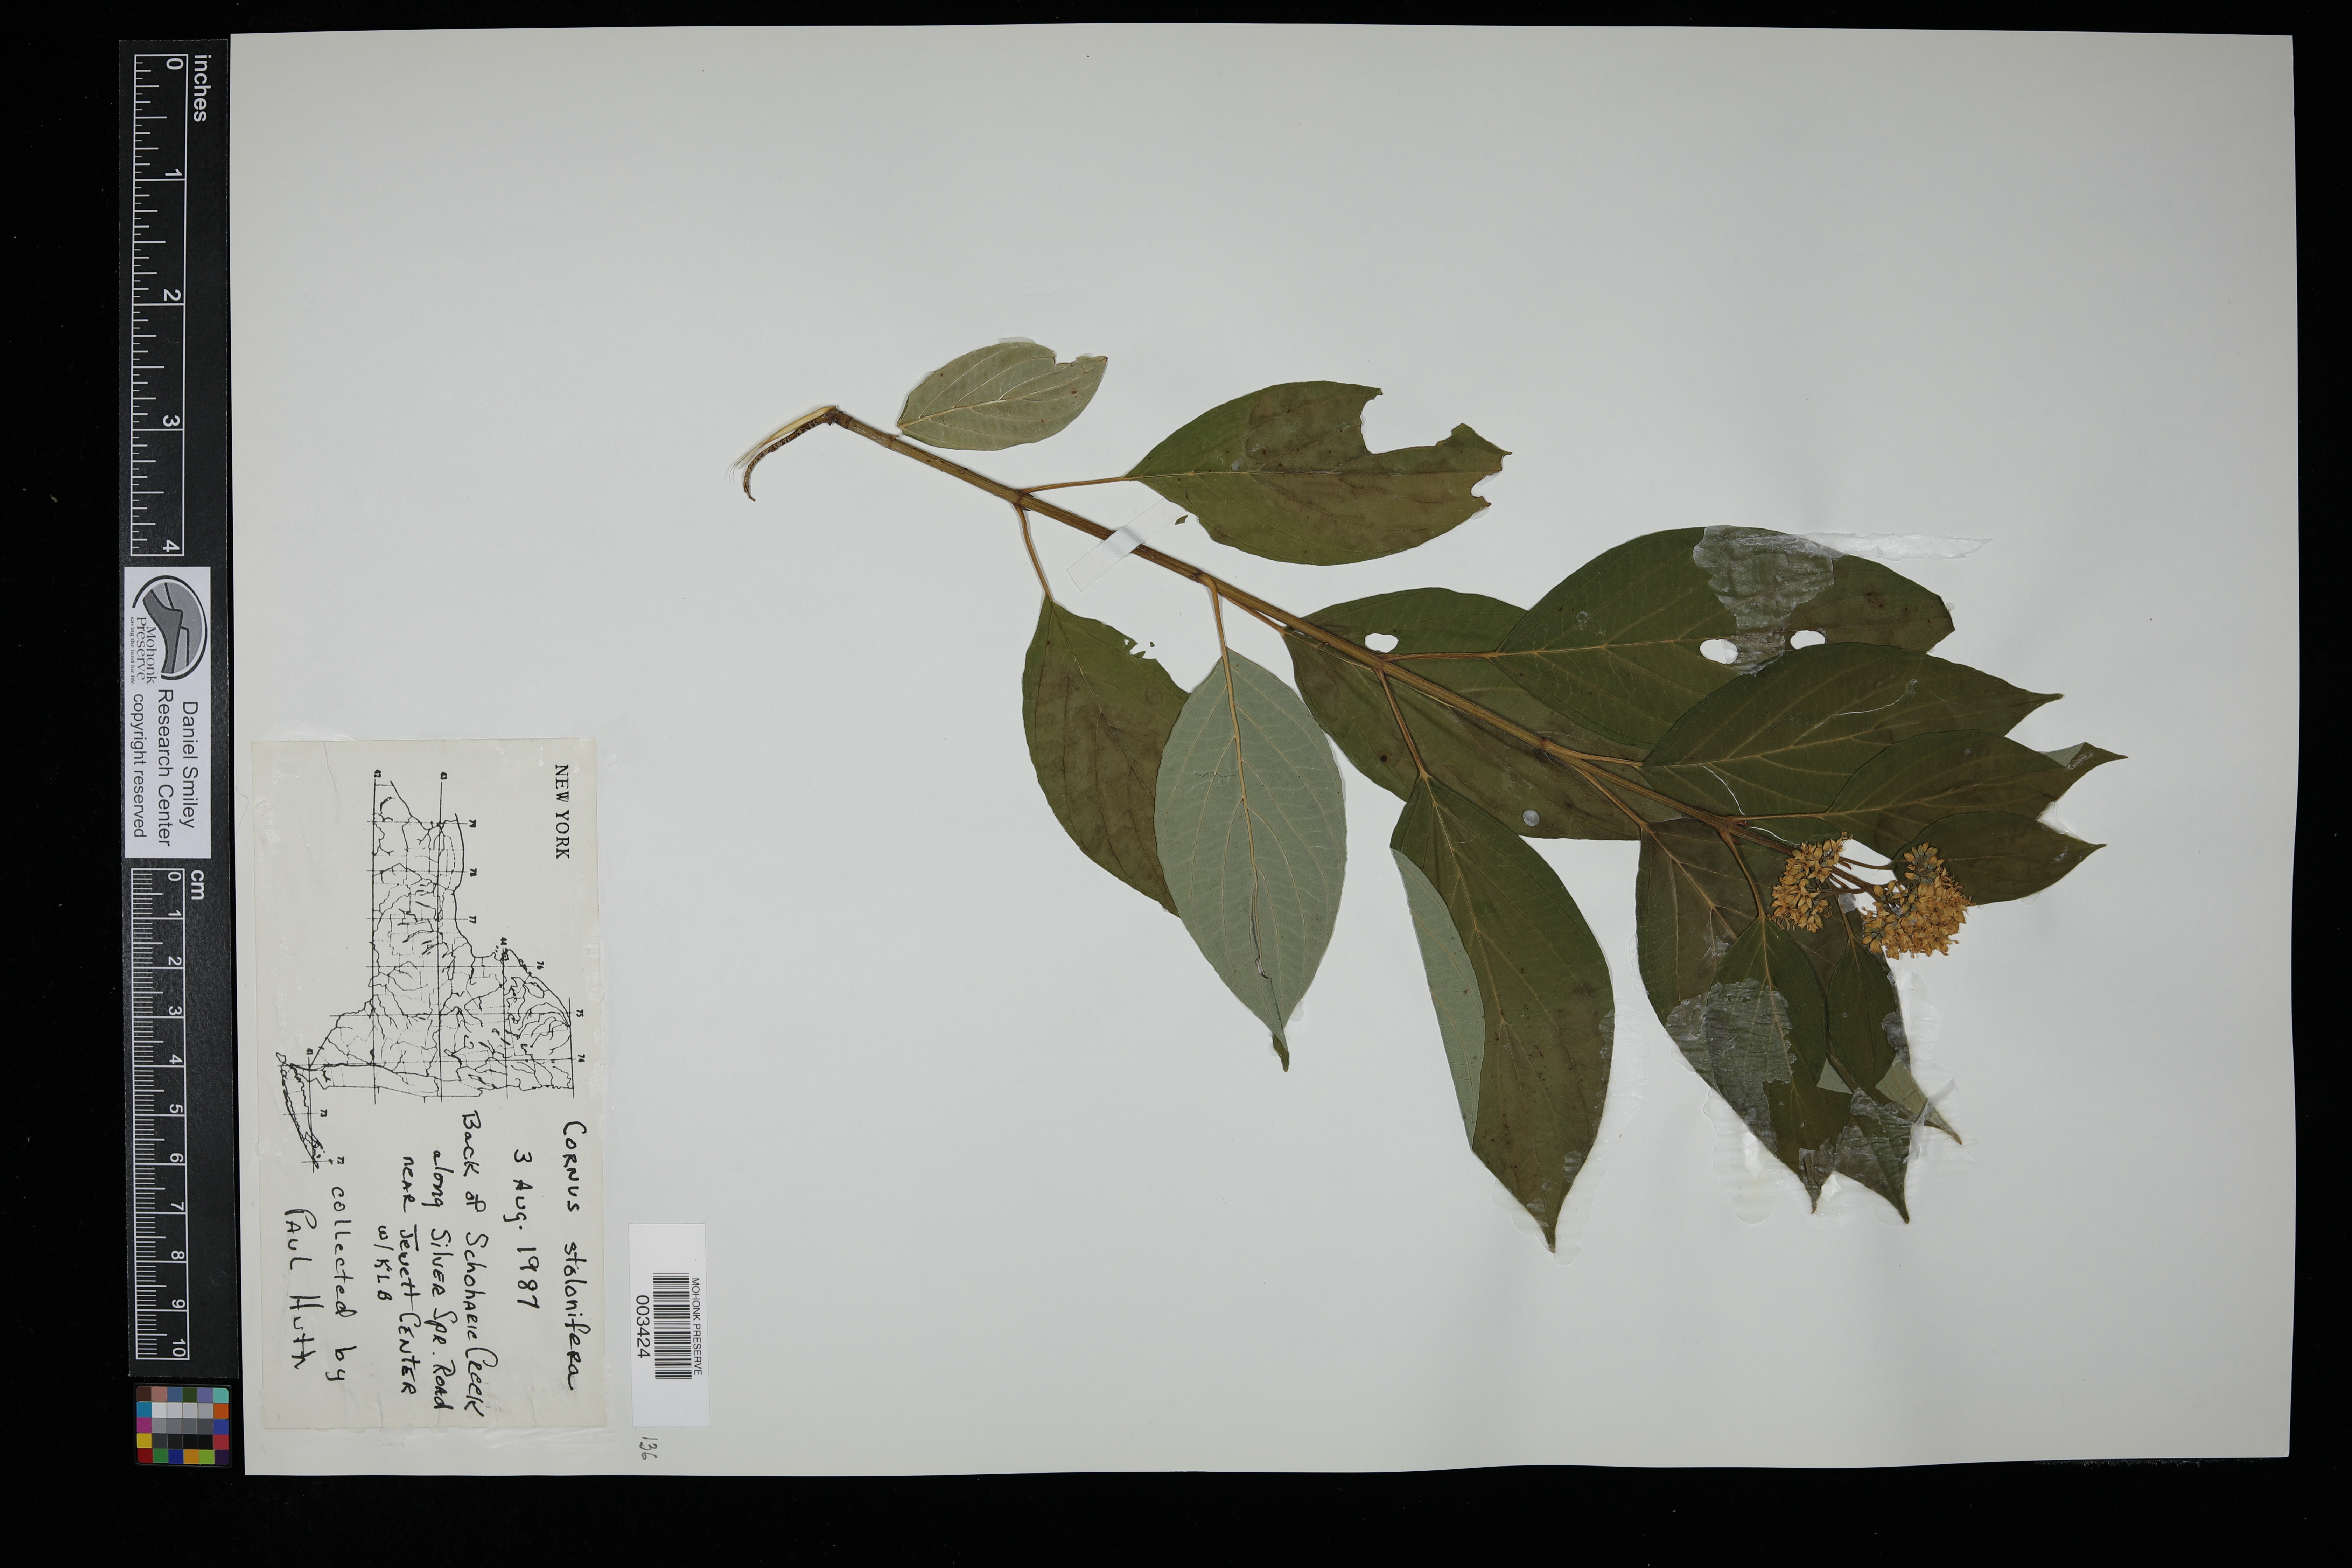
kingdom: Plantae
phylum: Tracheophyta
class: Magnoliopsida
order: Cornales
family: Cornaceae
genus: Cornus
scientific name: Cornus sericea
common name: Red-osier dogwood
